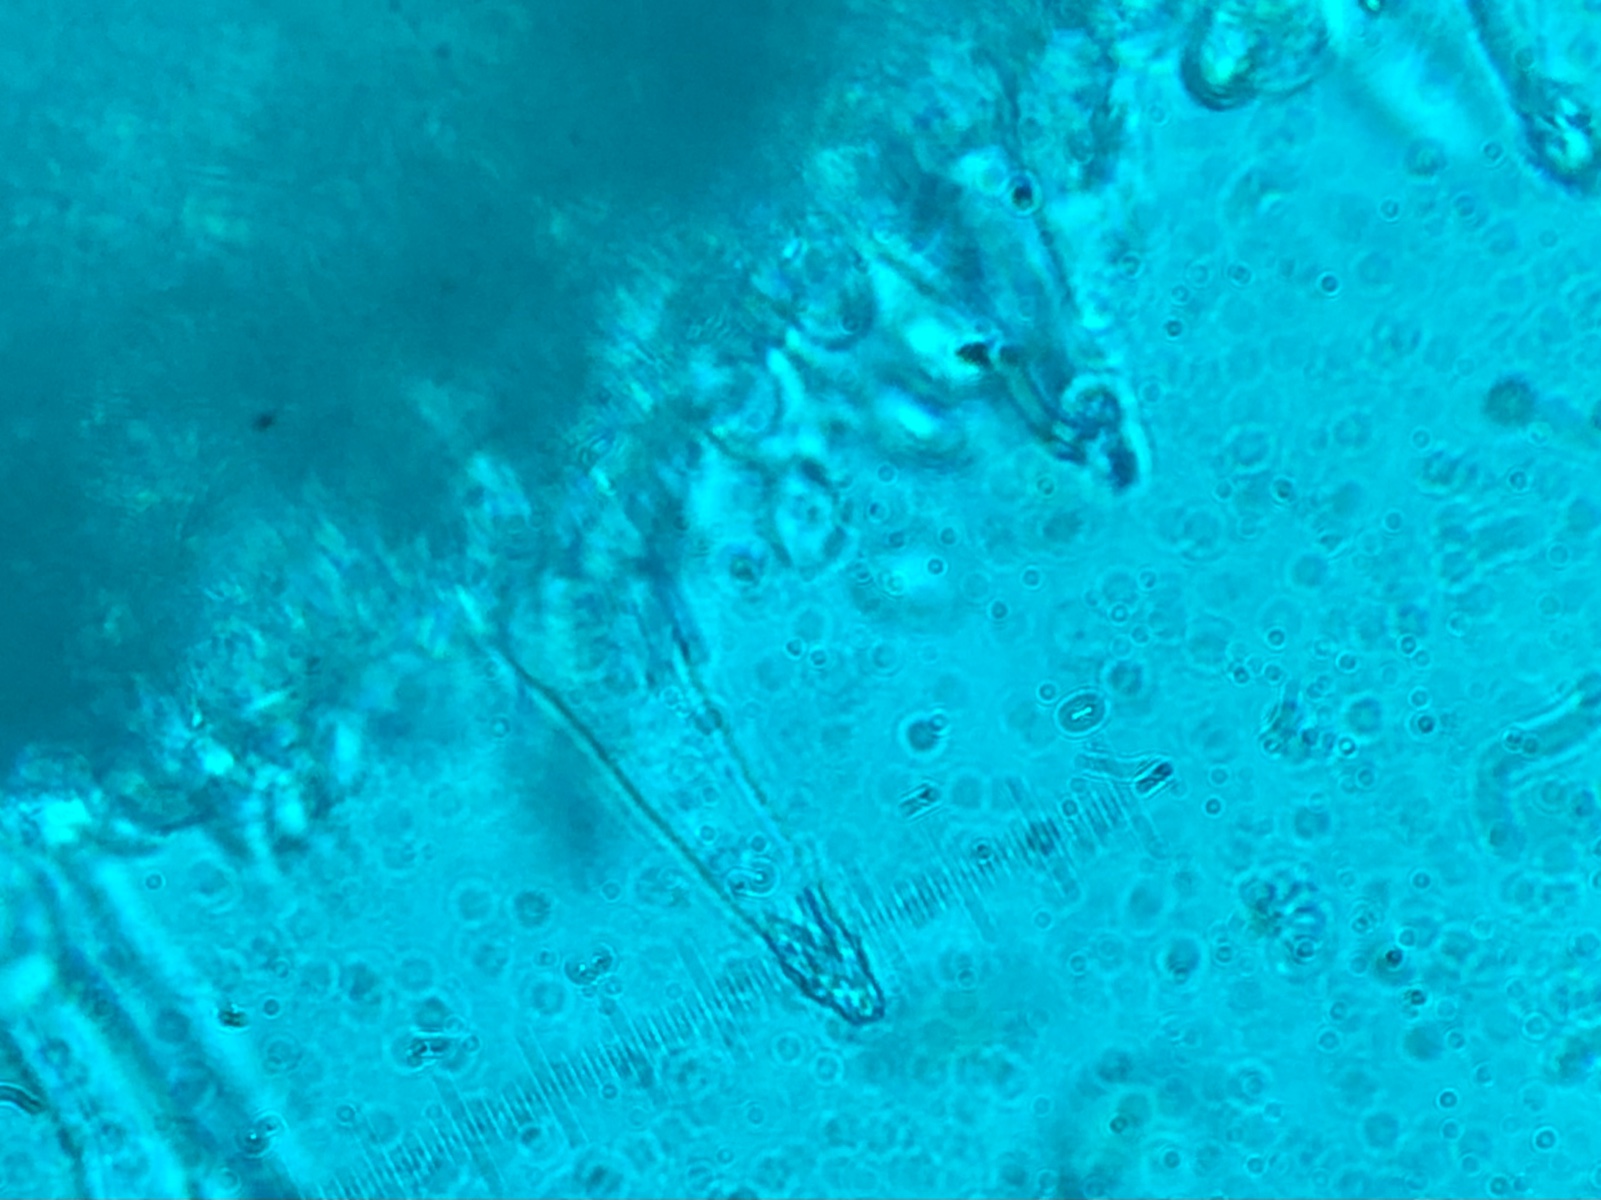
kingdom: Fungi
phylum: Basidiomycota
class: Agaricomycetes
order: Agaricales
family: Tricholomataceae
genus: Melanoleuca
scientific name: Melanoleuca polioleuca
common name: hvidbladet munkehat
